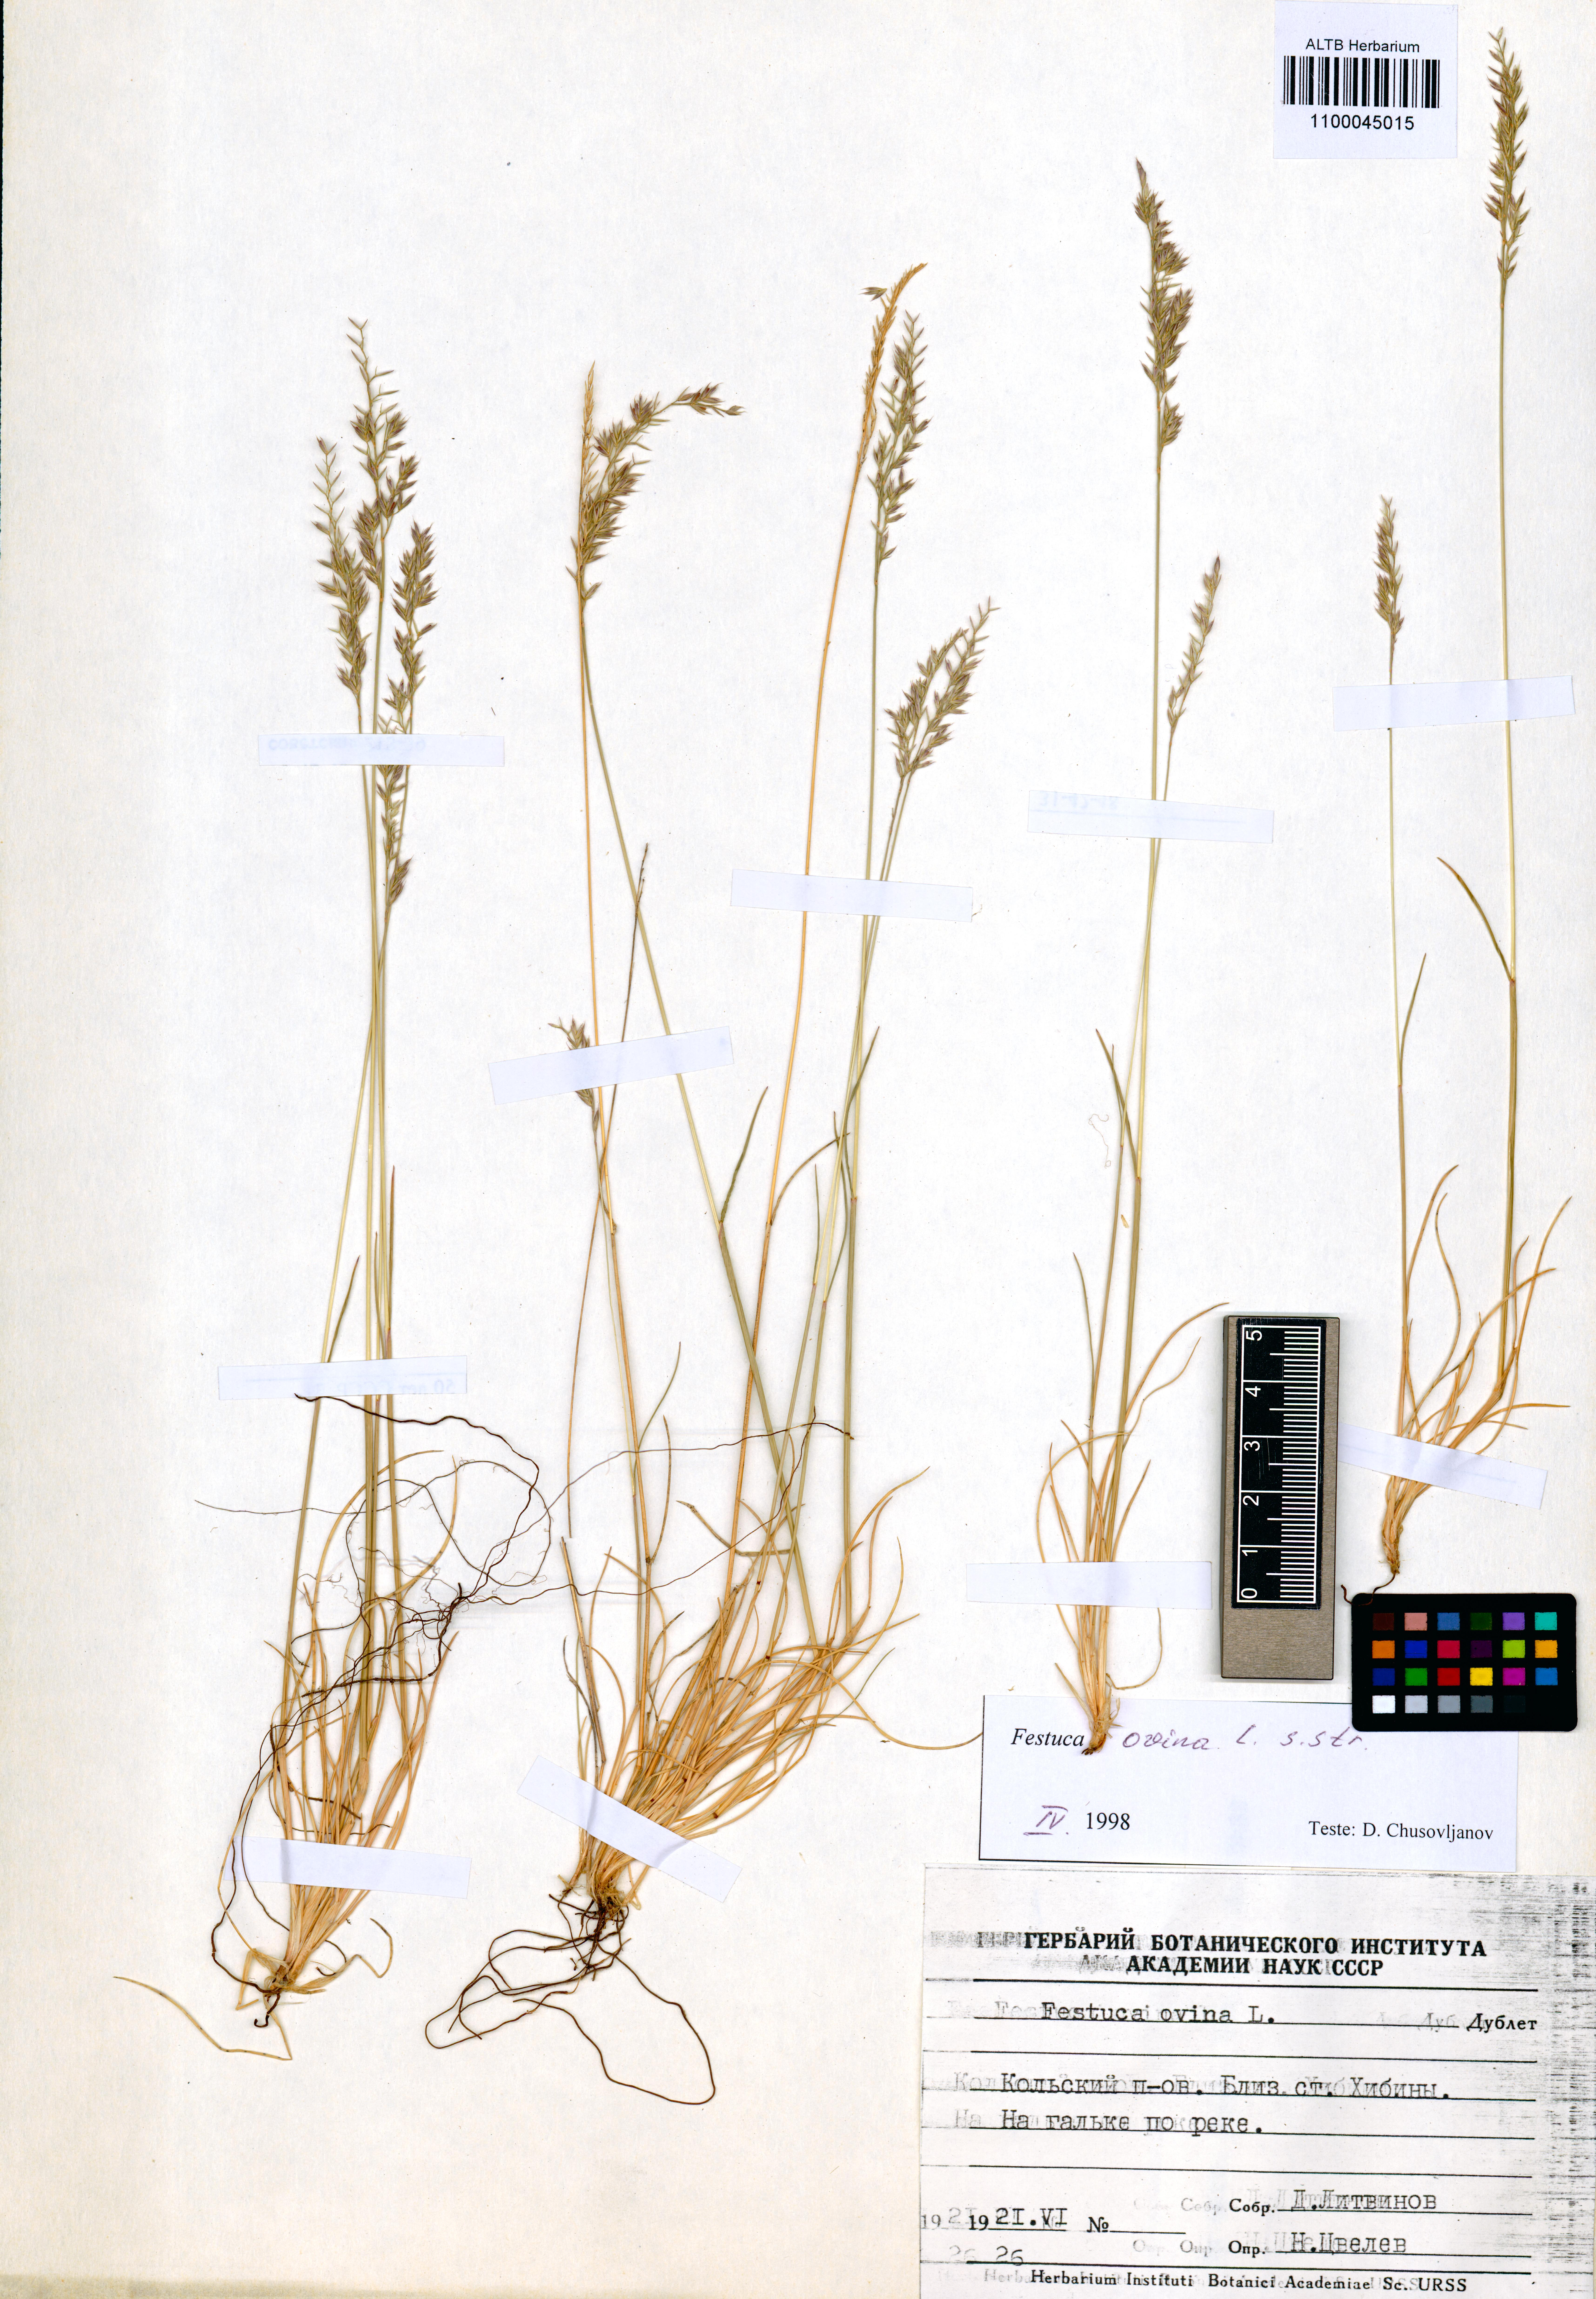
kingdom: Plantae
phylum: Tracheophyta
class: Liliopsida
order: Poales
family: Poaceae
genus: Festuca
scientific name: Festuca ovina
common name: Sheep fescue
